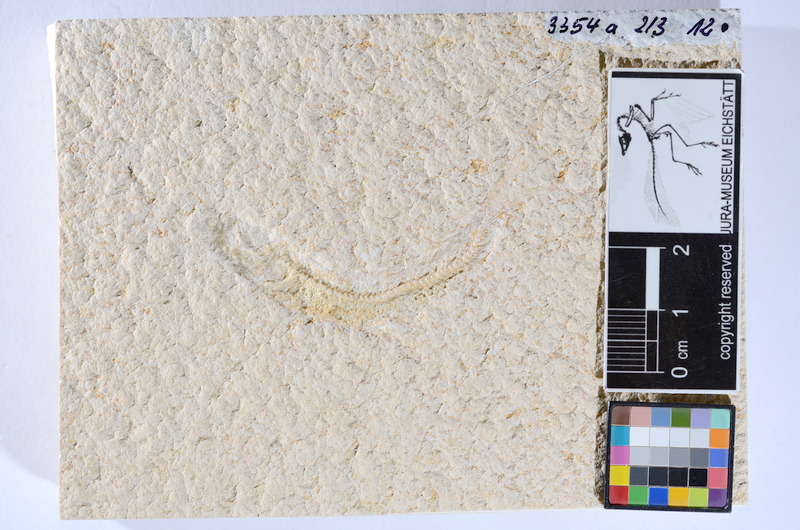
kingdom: Animalia
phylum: Chordata
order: Salmoniformes
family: Orthogonikleithridae
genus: Leptolepides
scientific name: Leptolepides sprattiformis
